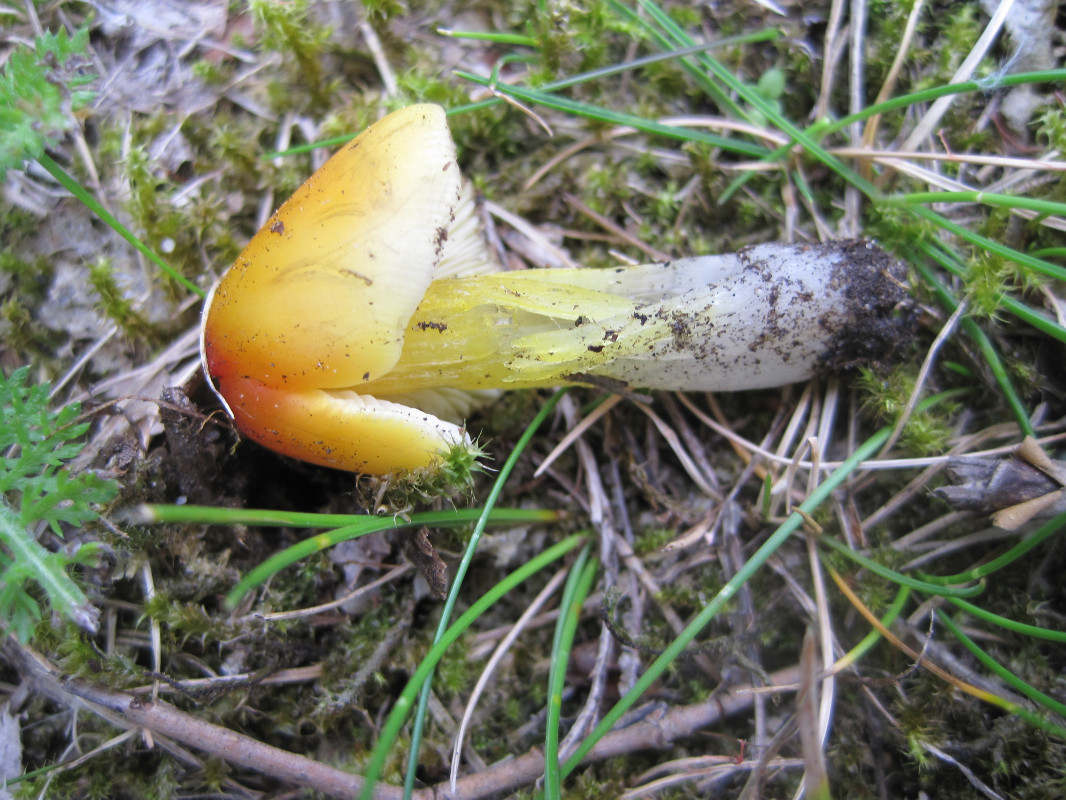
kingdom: Fungi
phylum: Basidiomycota
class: Agaricomycetes
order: Agaricales
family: Hygrophoraceae
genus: Hygrocybe
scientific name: Hygrocybe conica
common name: kegle-vokshat
